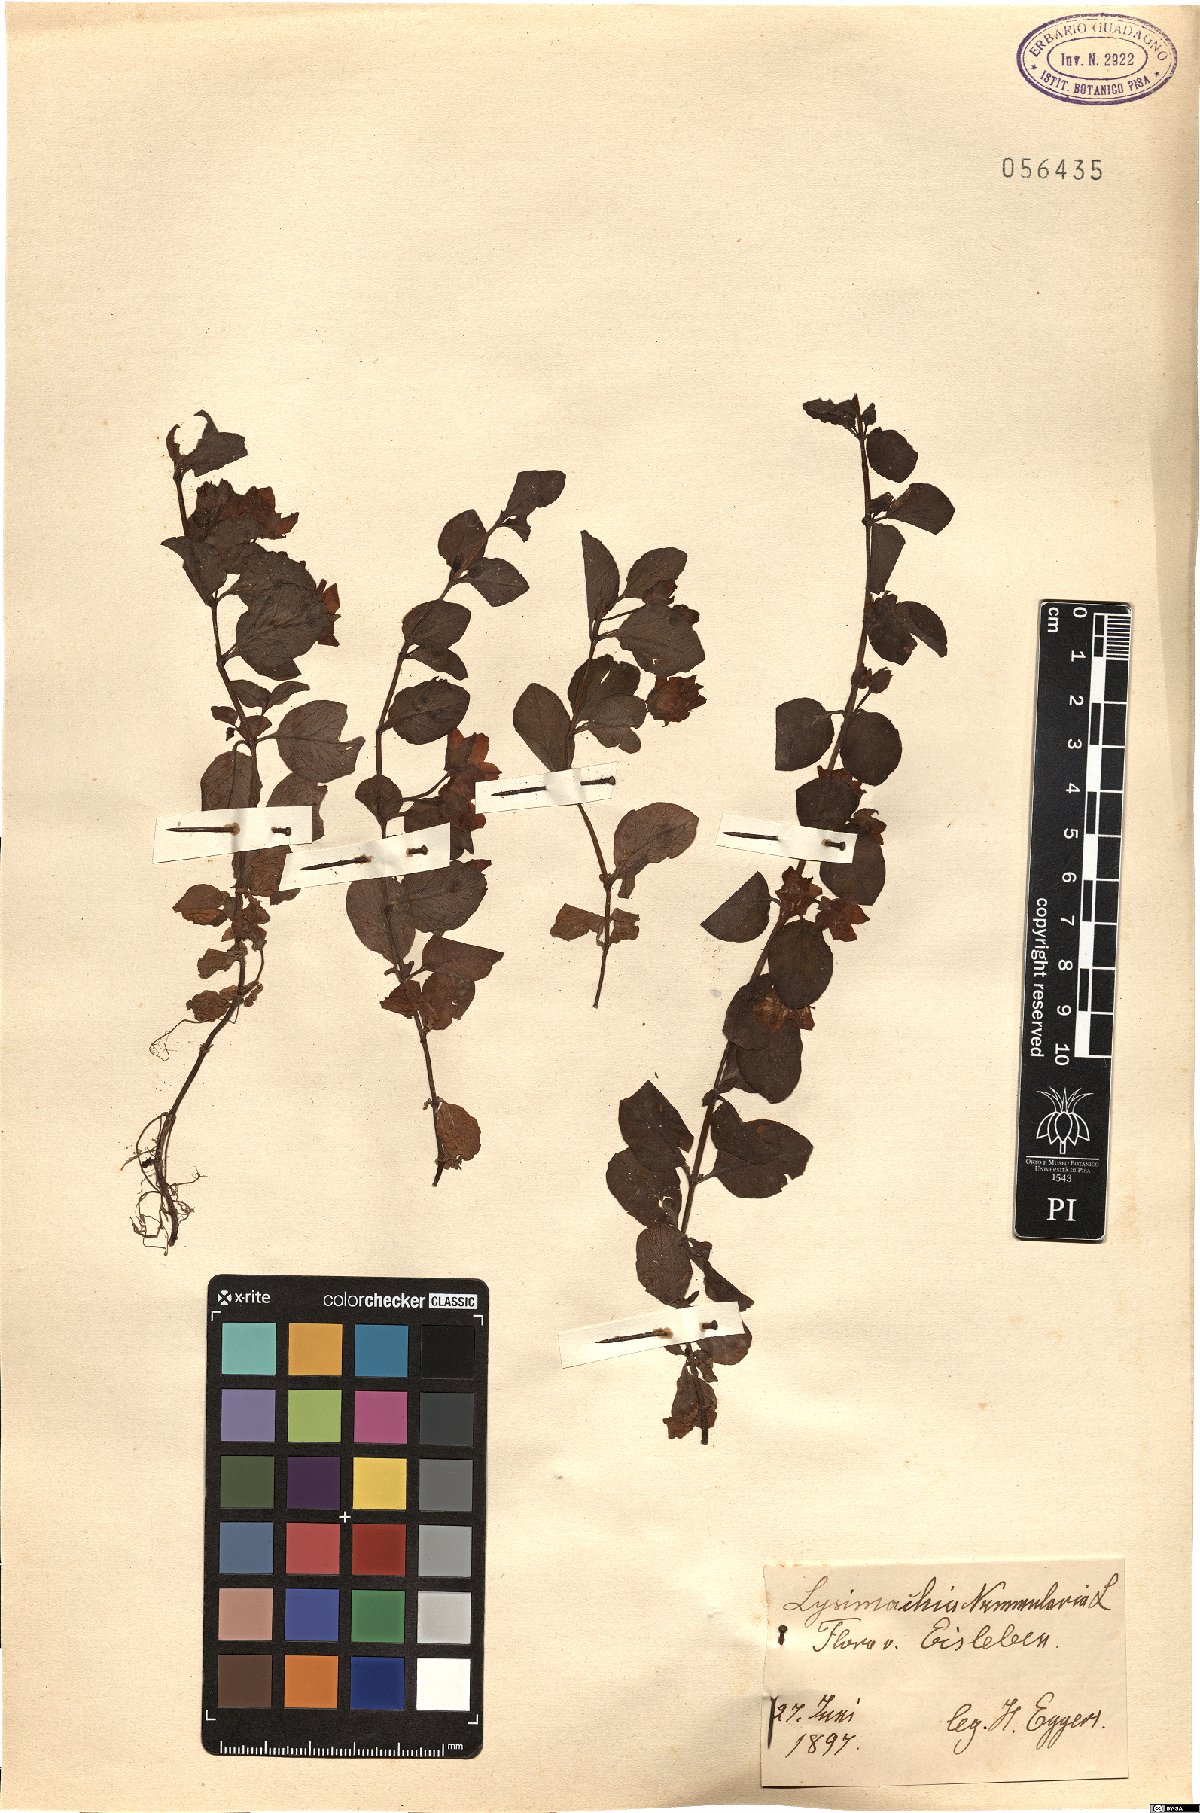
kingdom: Plantae
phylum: Tracheophyta
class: Magnoliopsida
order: Ericales
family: Primulaceae
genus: Lysimachia
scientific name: Lysimachia nummularia
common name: Moneywort
